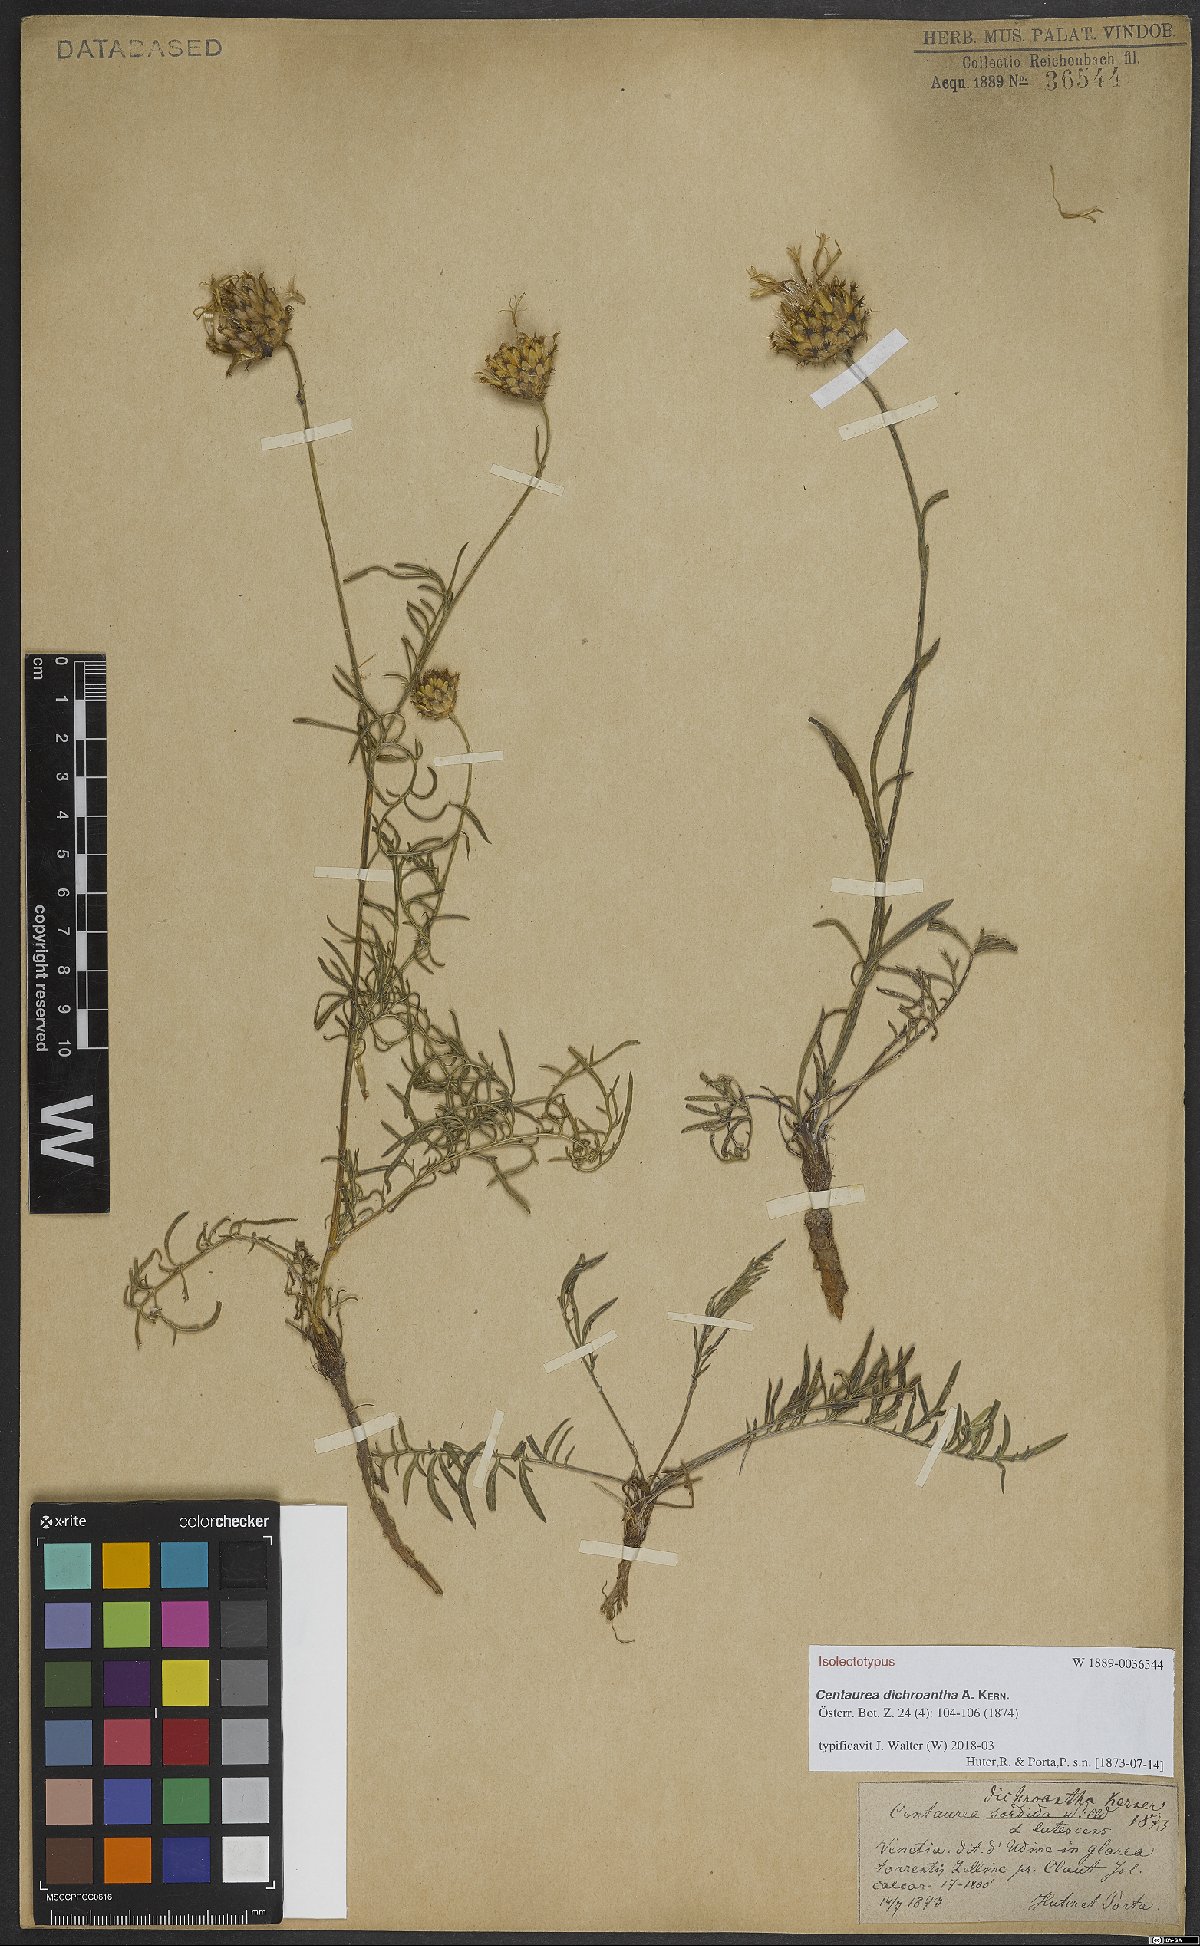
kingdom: Plantae
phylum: Tracheophyta
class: Magnoliopsida
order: Asterales
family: Asteraceae
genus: Centaurea
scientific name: Centaurea dichroantha
